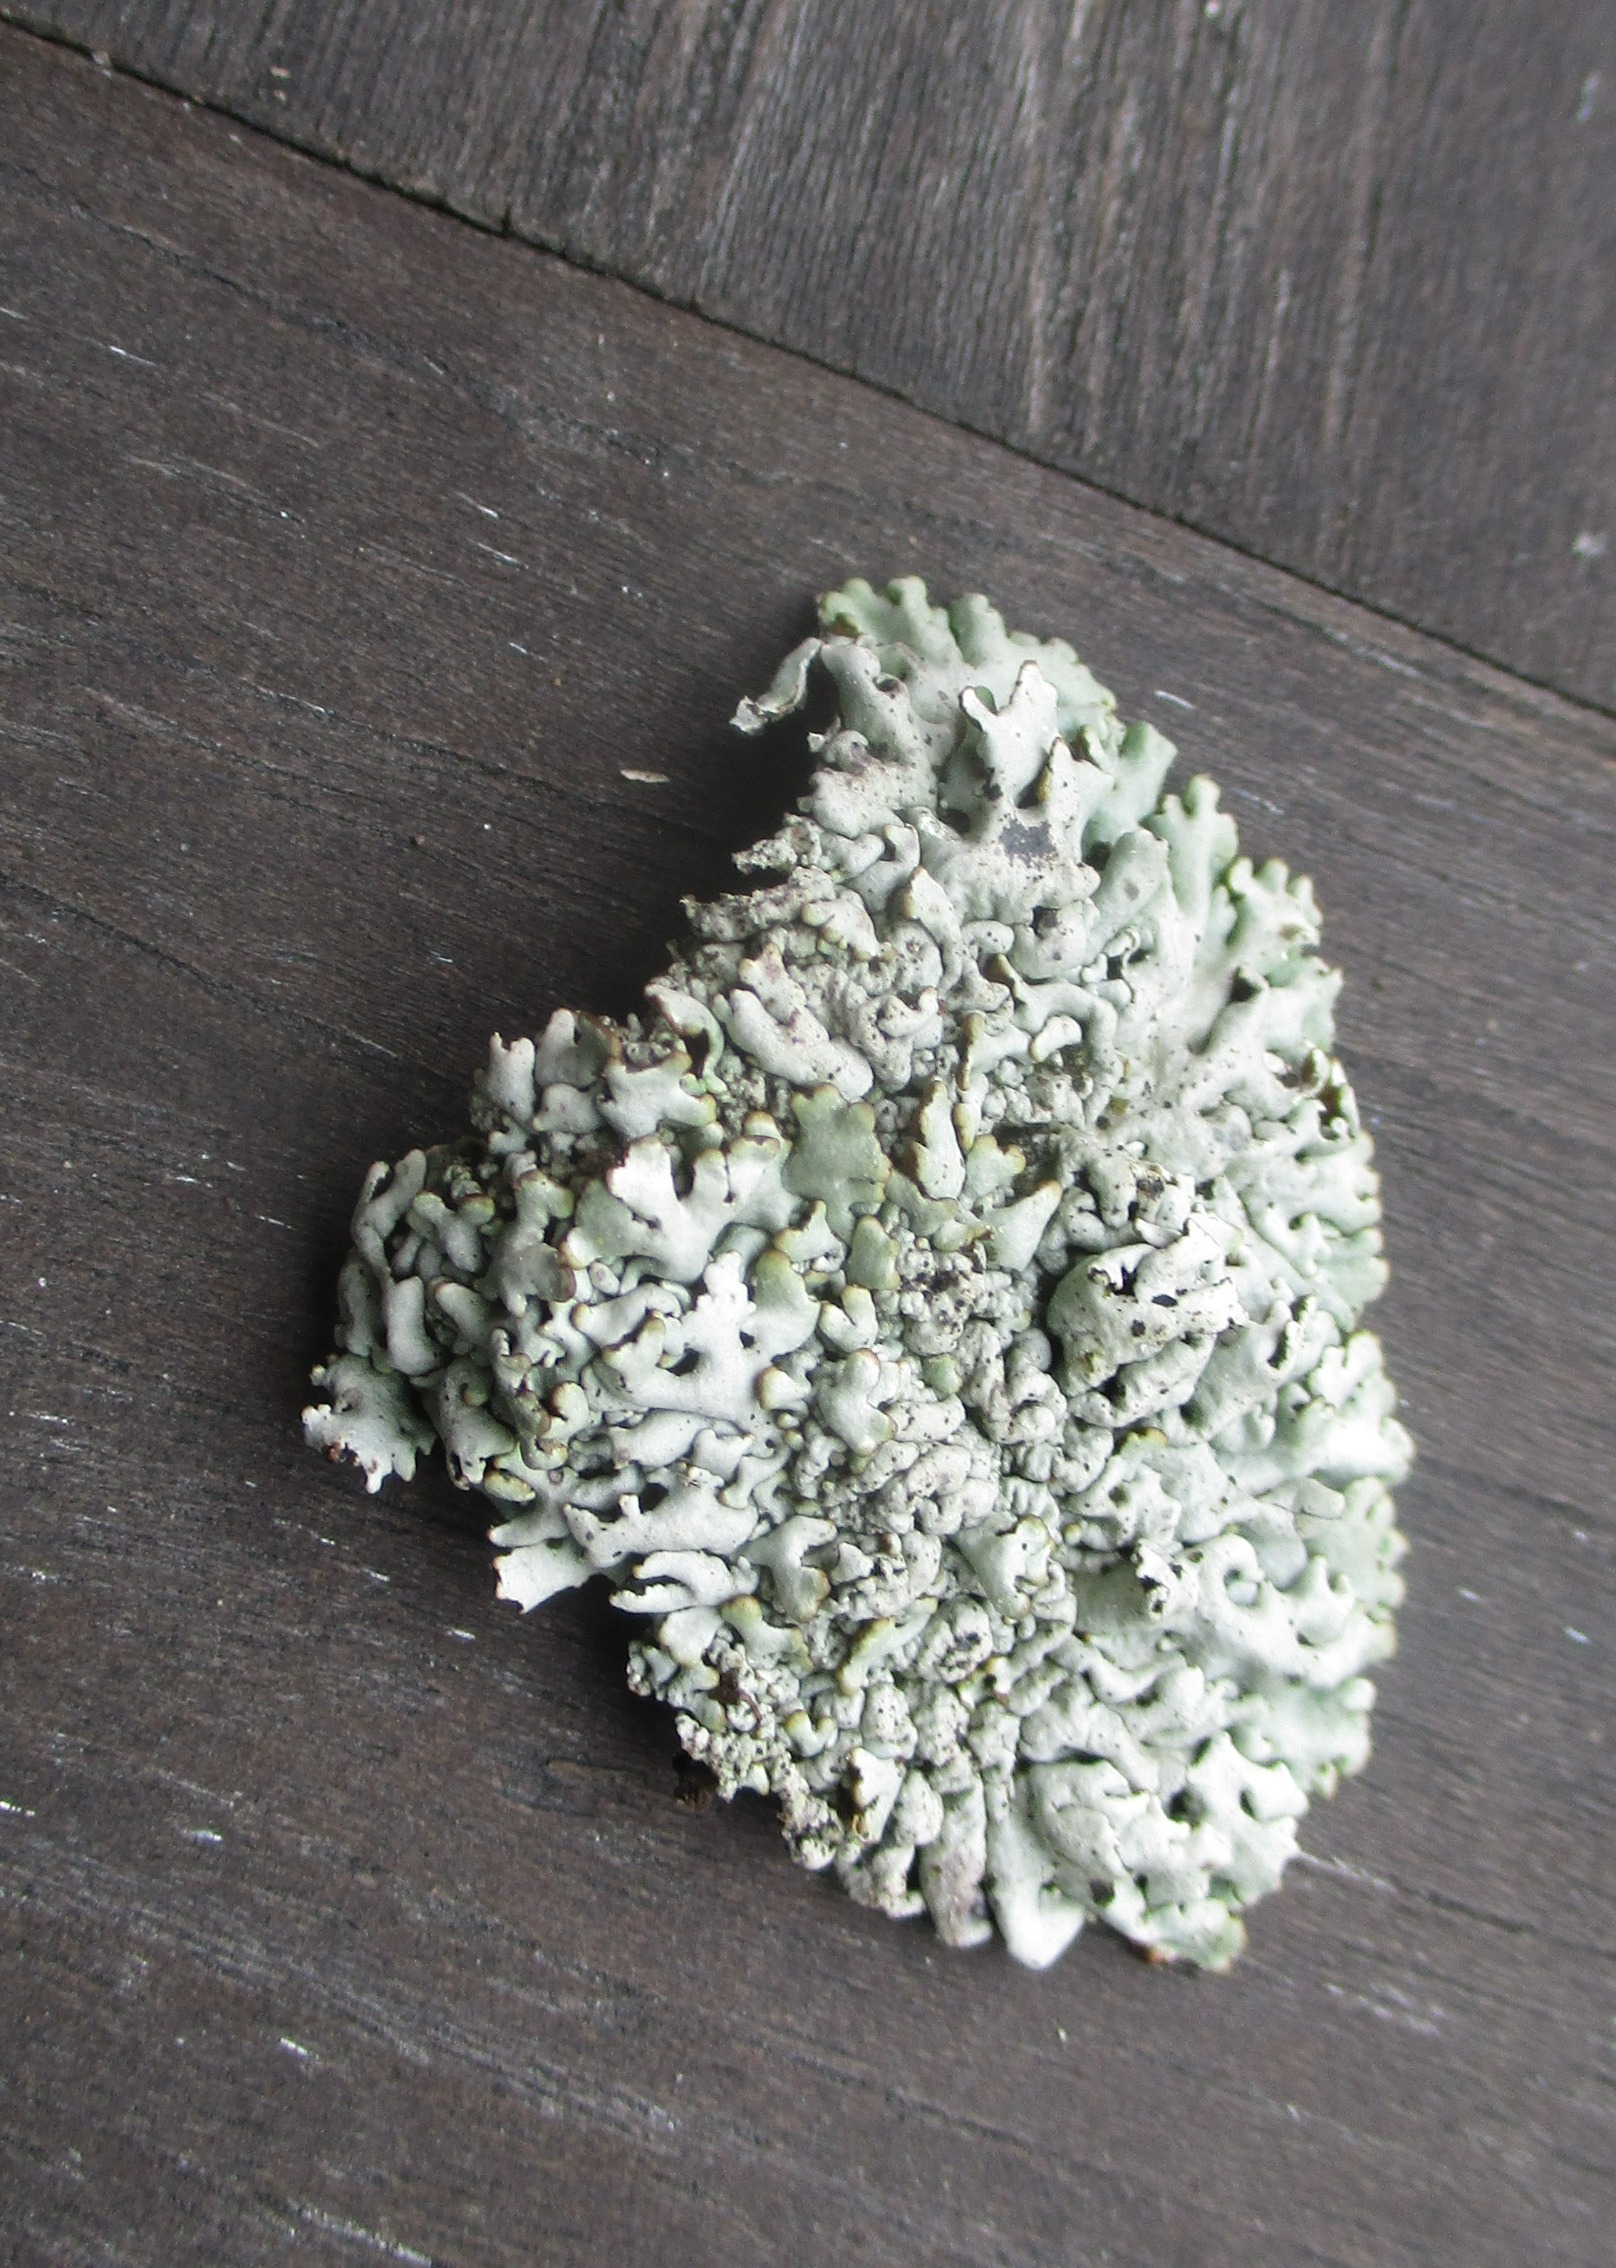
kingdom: Fungi
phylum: Ascomycota
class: Lecanoromycetes
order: Lecanorales
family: Parmeliaceae
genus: Hypogymnia
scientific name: Hypogymnia physodes
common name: Almindelig kvistlav
